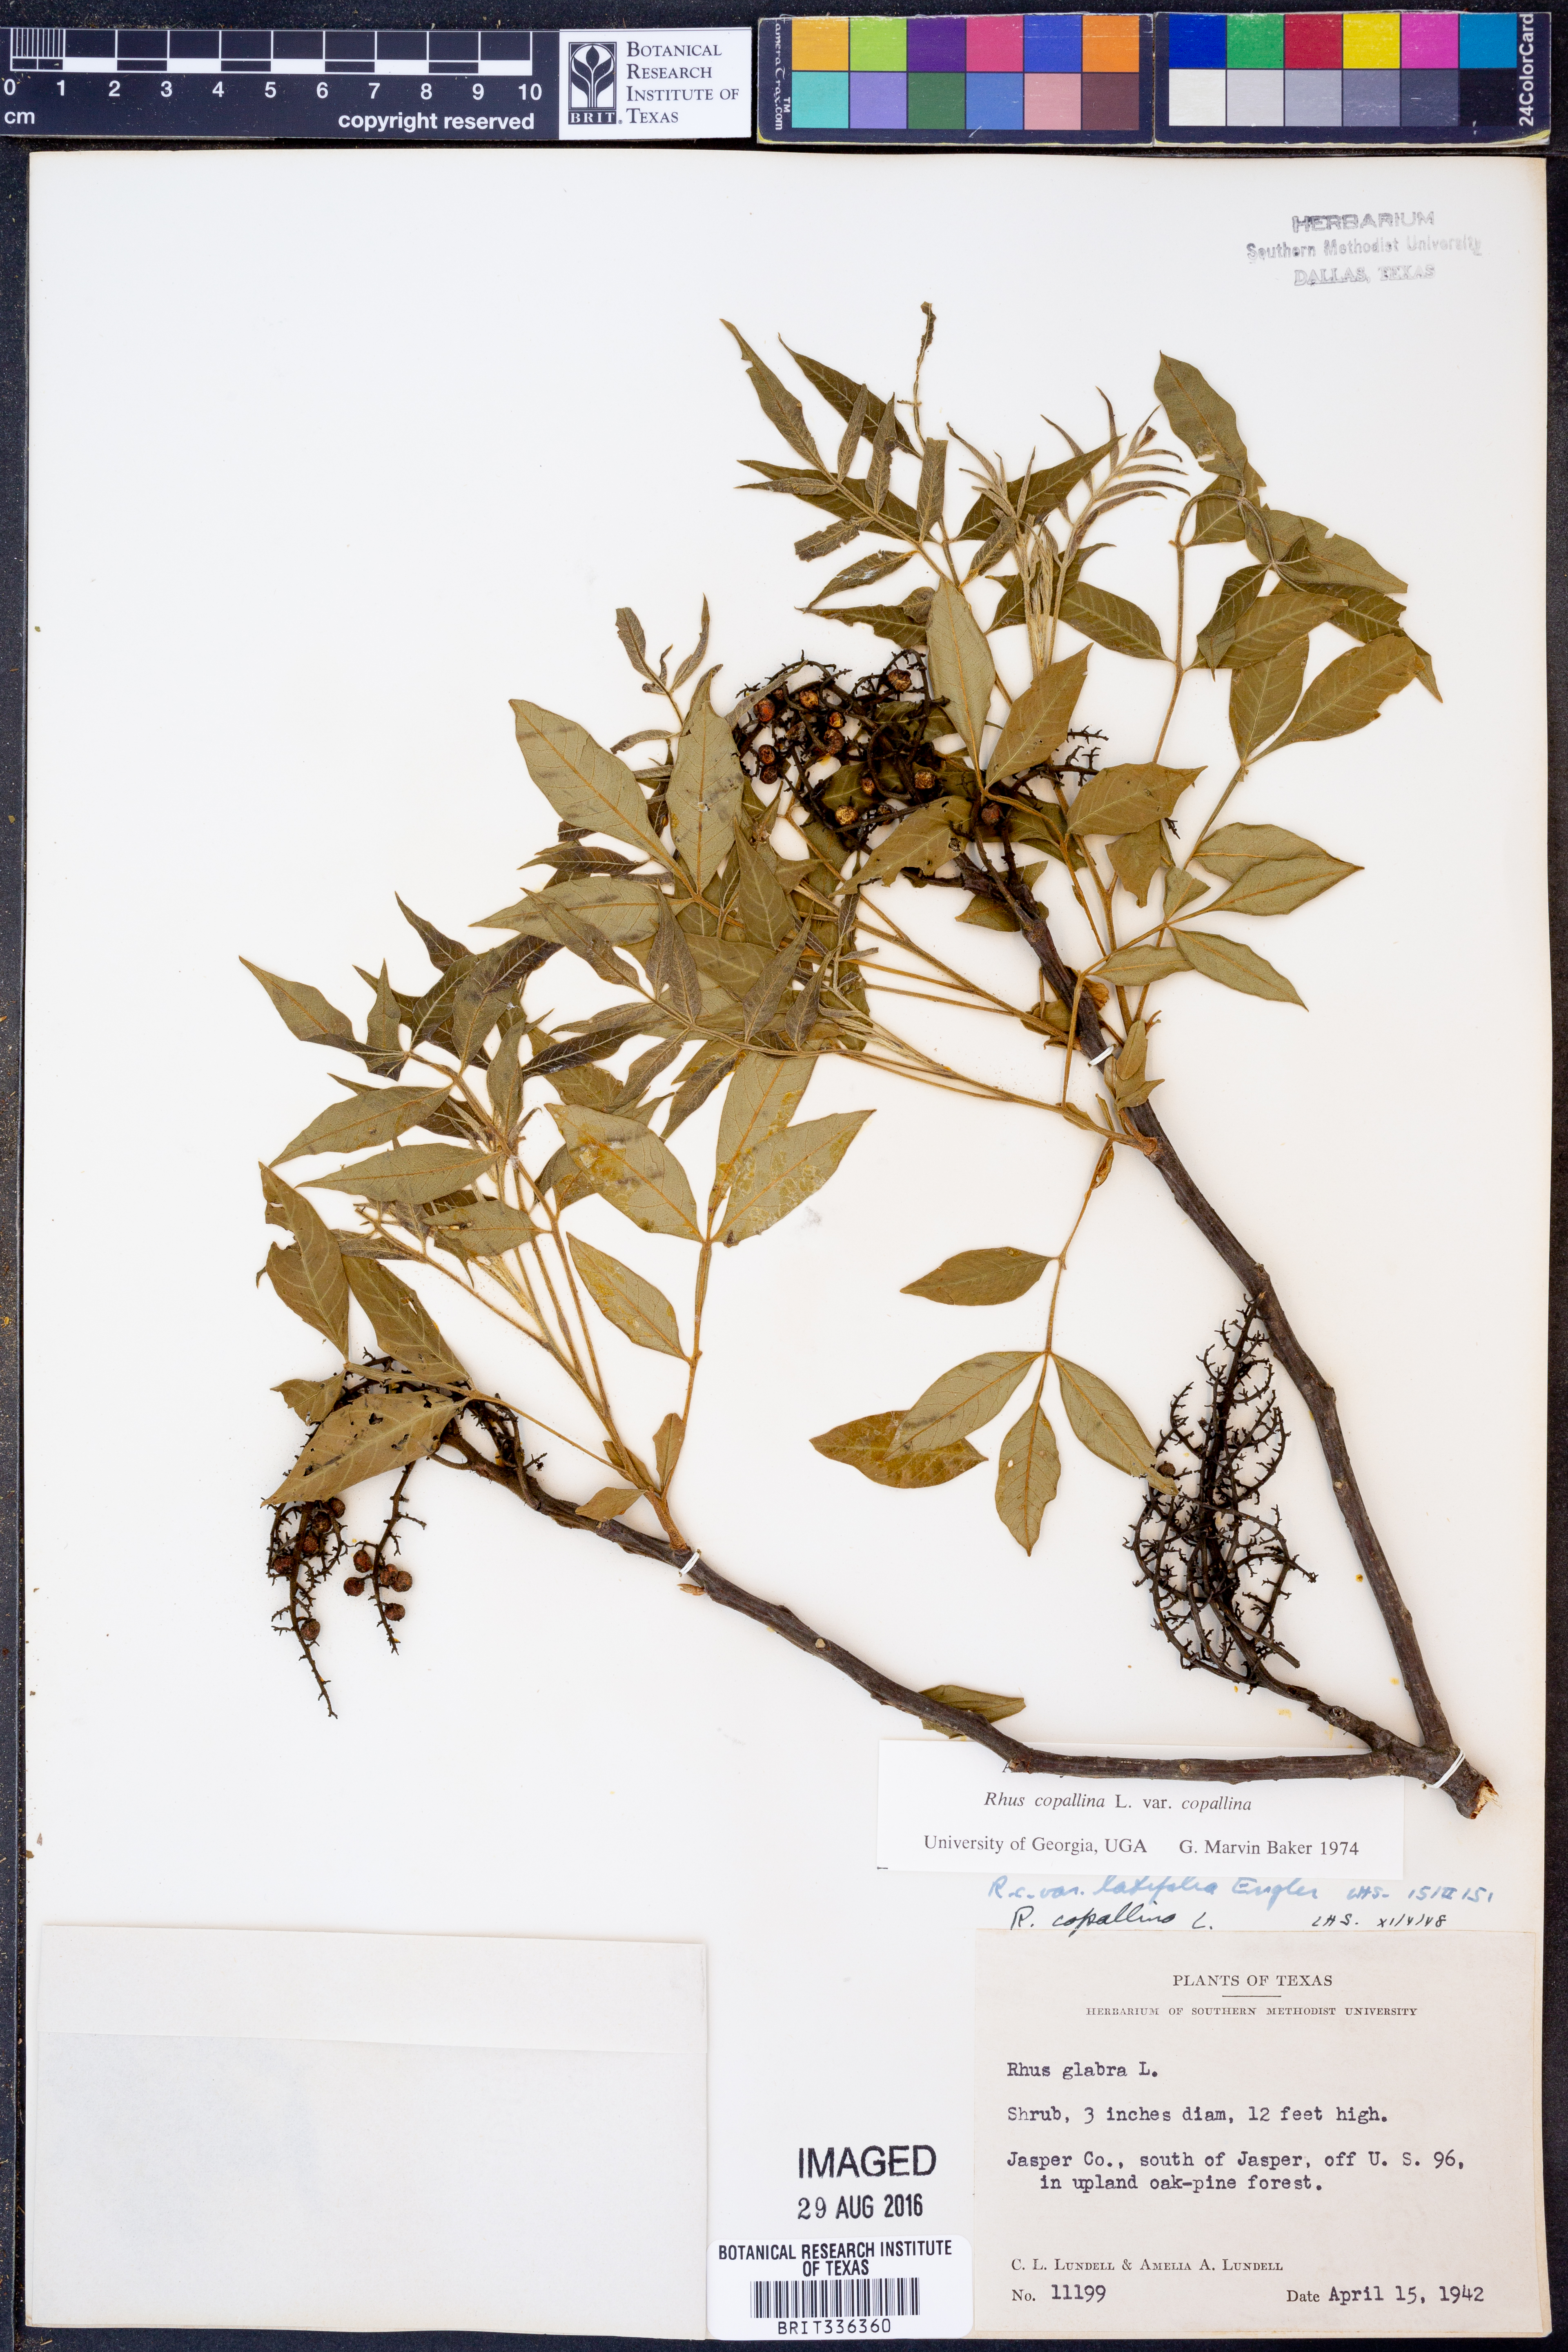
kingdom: Plantae
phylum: Tracheophyta
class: Magnoliopsida
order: Sapindales
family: Anacardiaceae
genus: Rhus
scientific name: Rhus copallina
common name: Shining sumac
